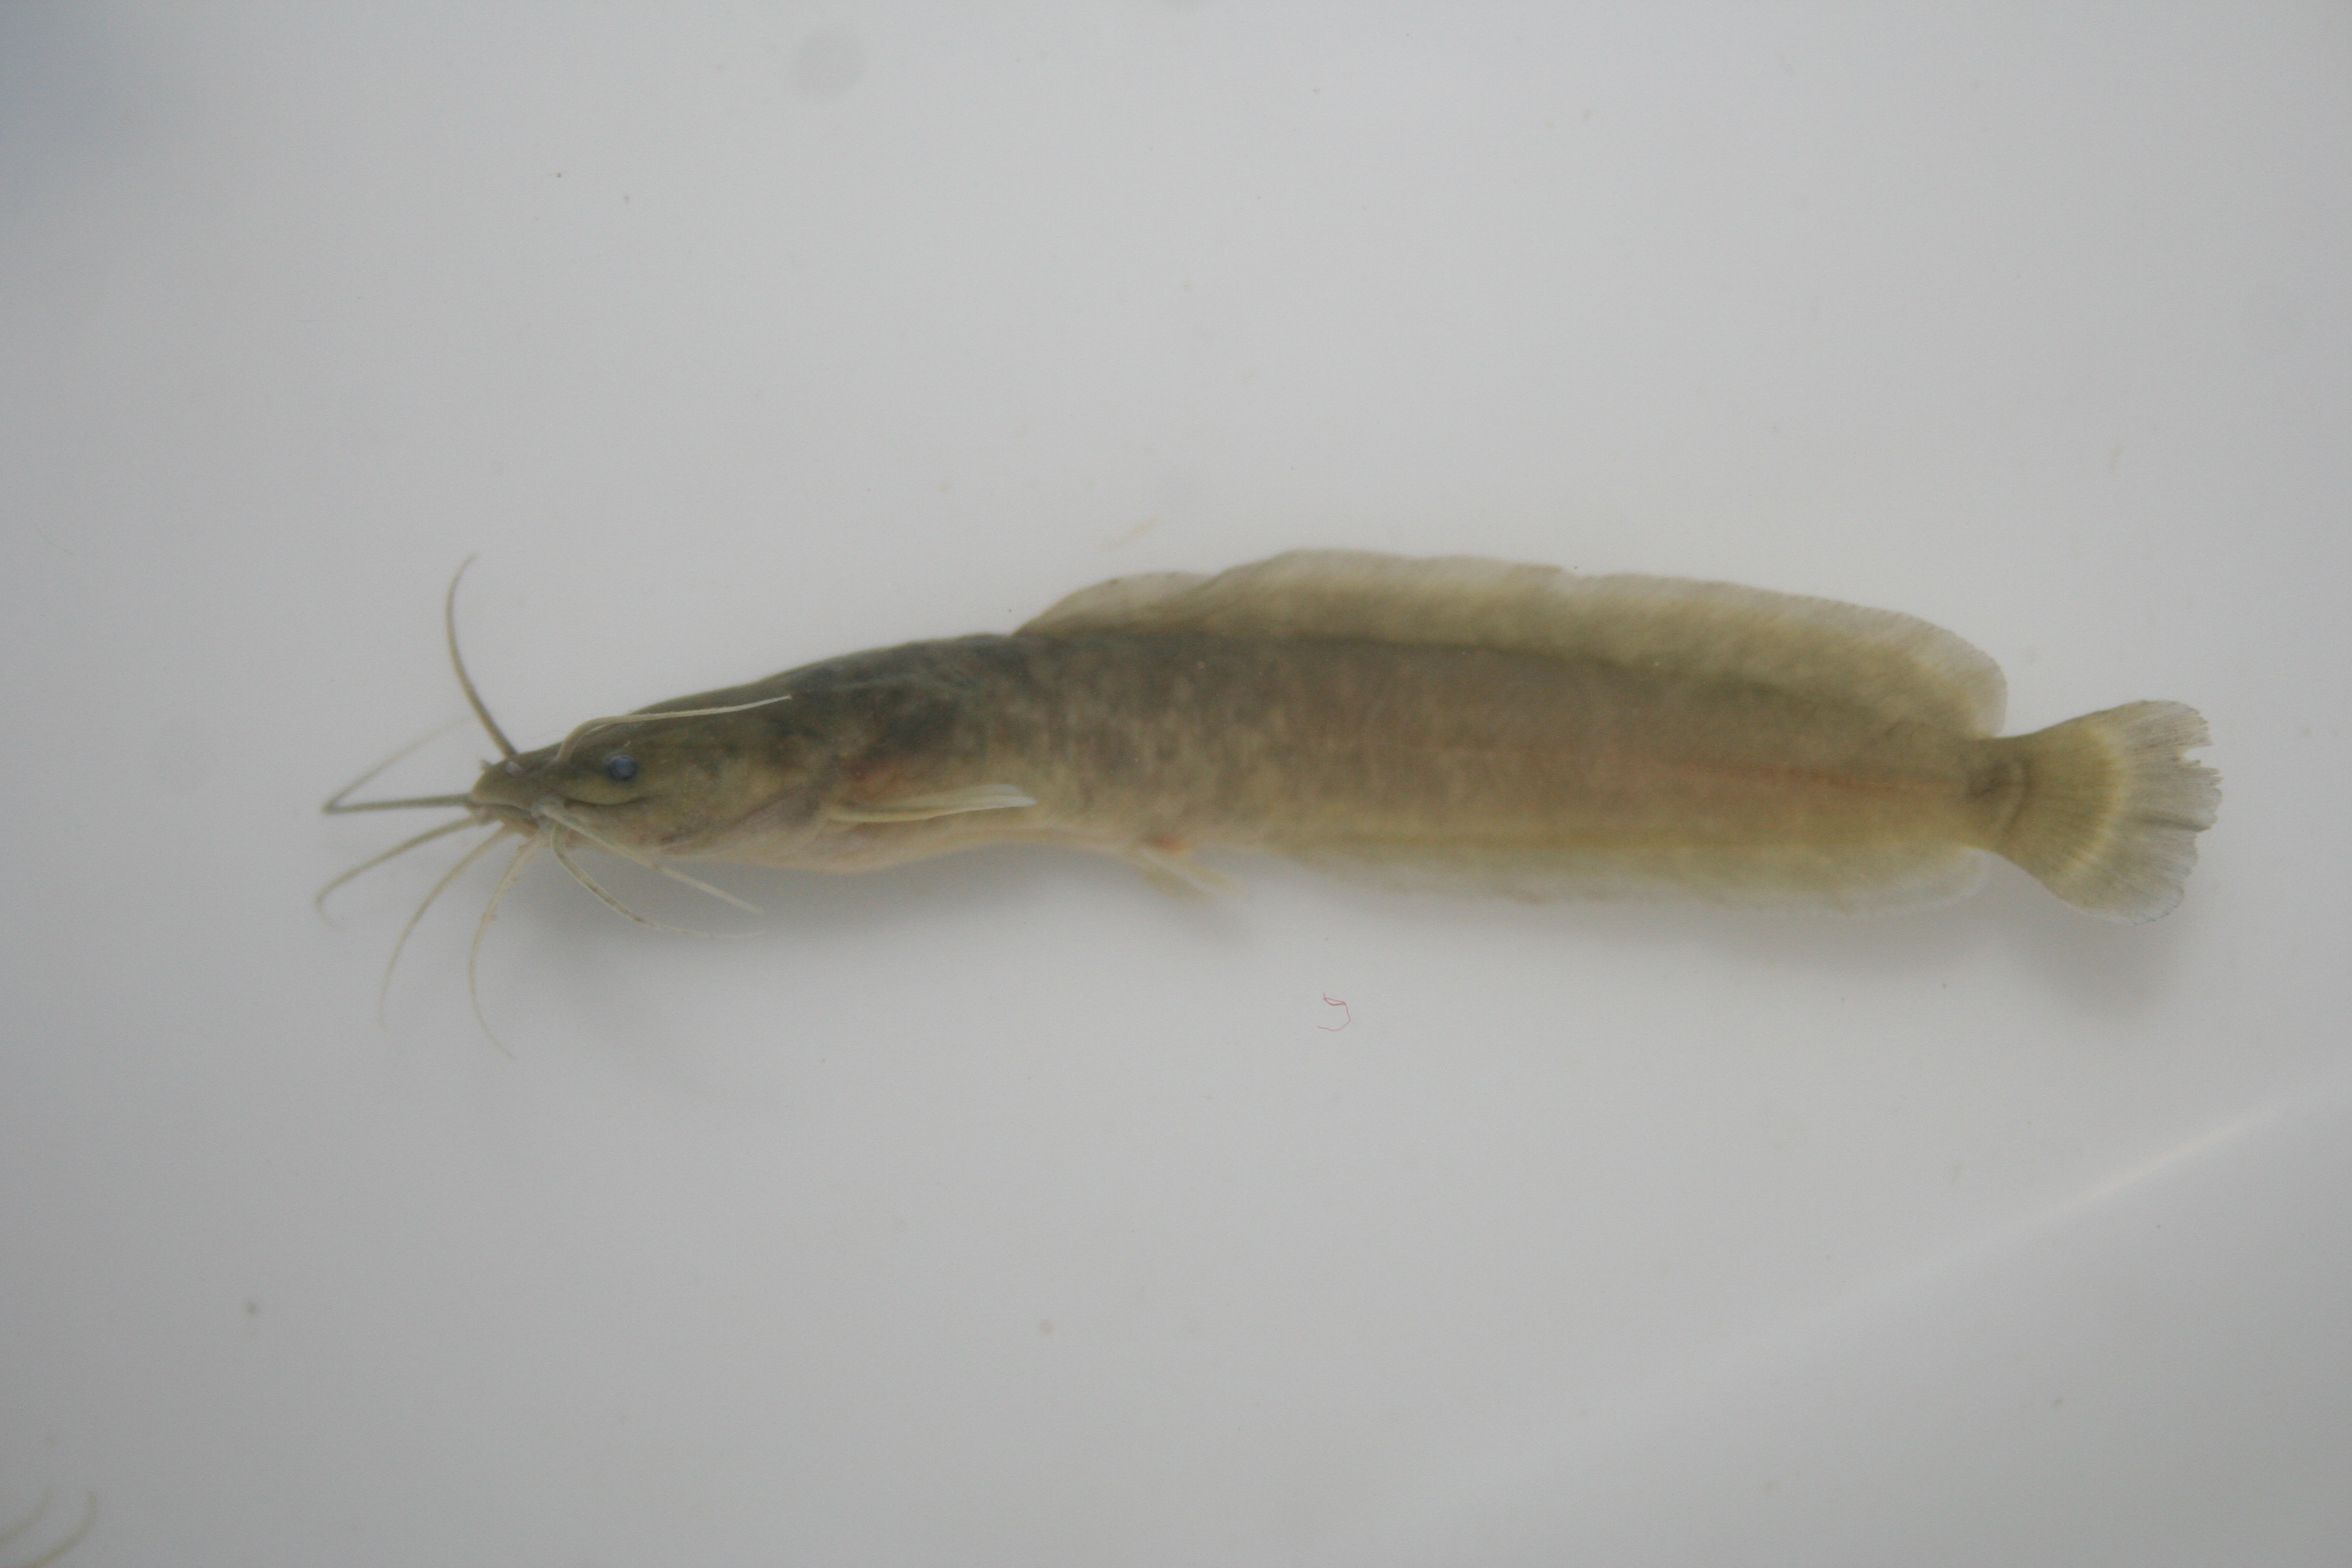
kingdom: Animalia
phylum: Chordata
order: Siluriformes
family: Clariidae
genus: Clarias
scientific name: Clarias
